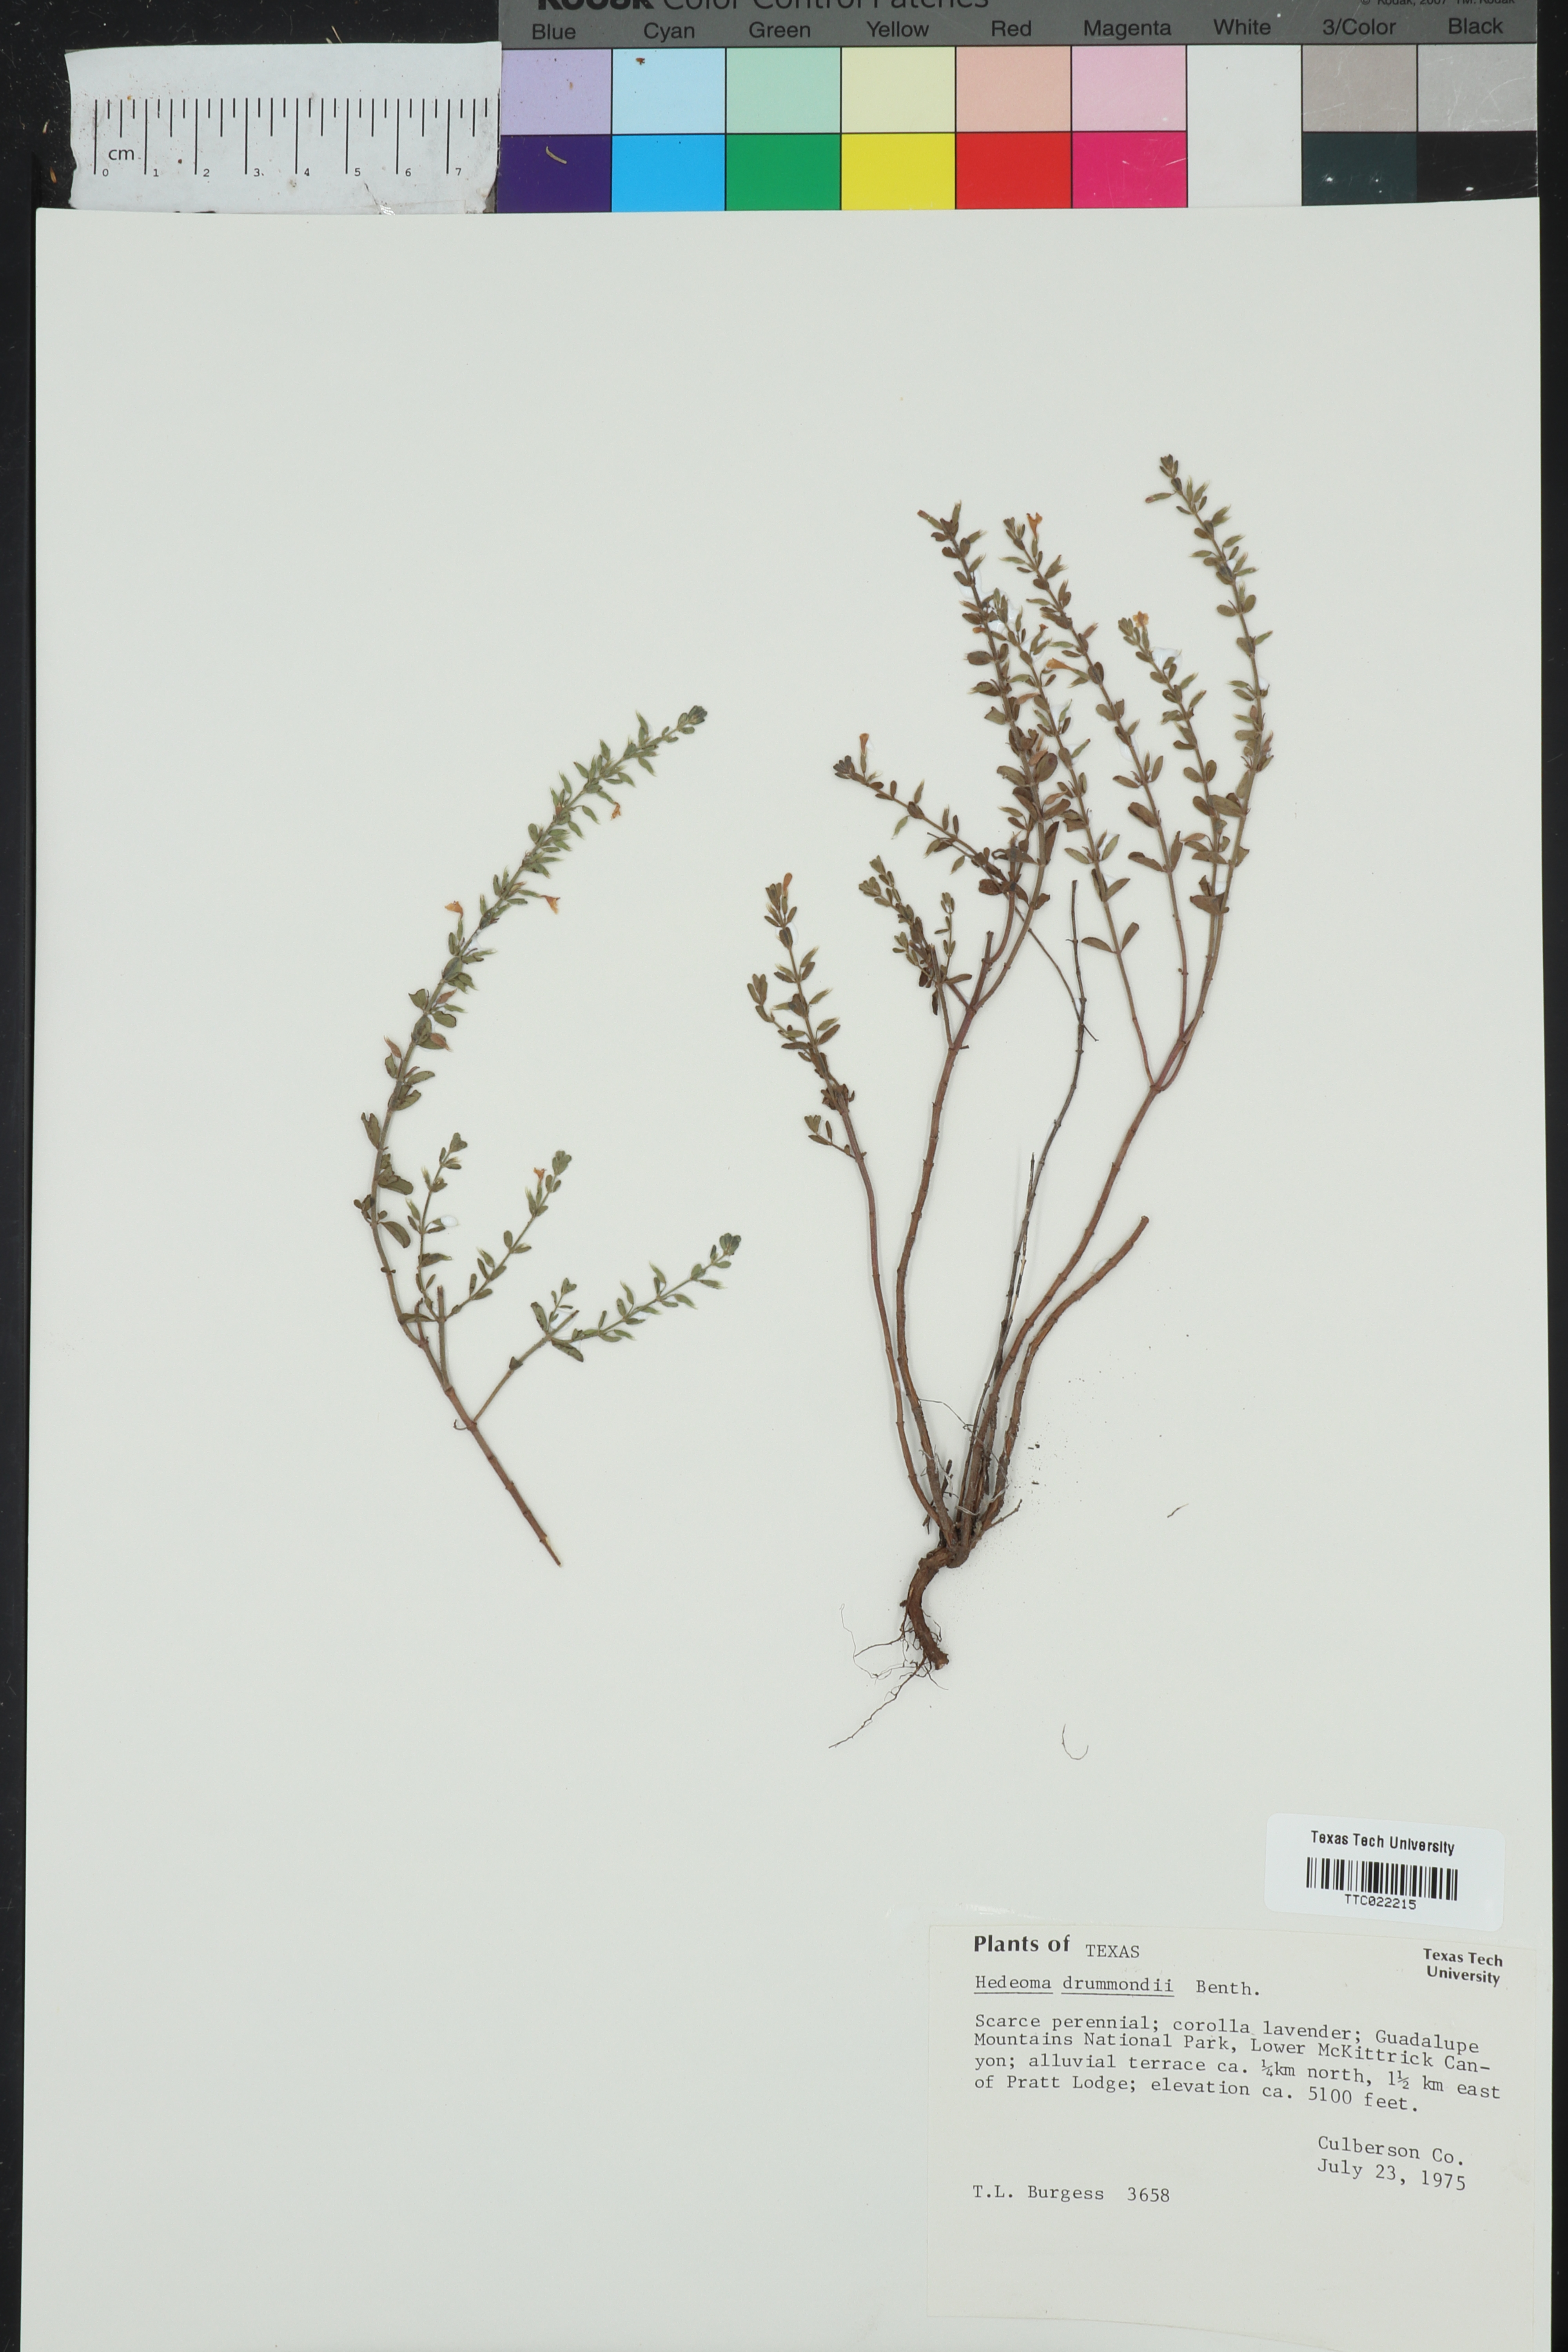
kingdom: Plantae
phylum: Tracheophyta
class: Magnoliopsida
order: Lamiales
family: Lamiaceae
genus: Hedeoma
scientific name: Hedeoma drummondii
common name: New mexico pennyroyal
